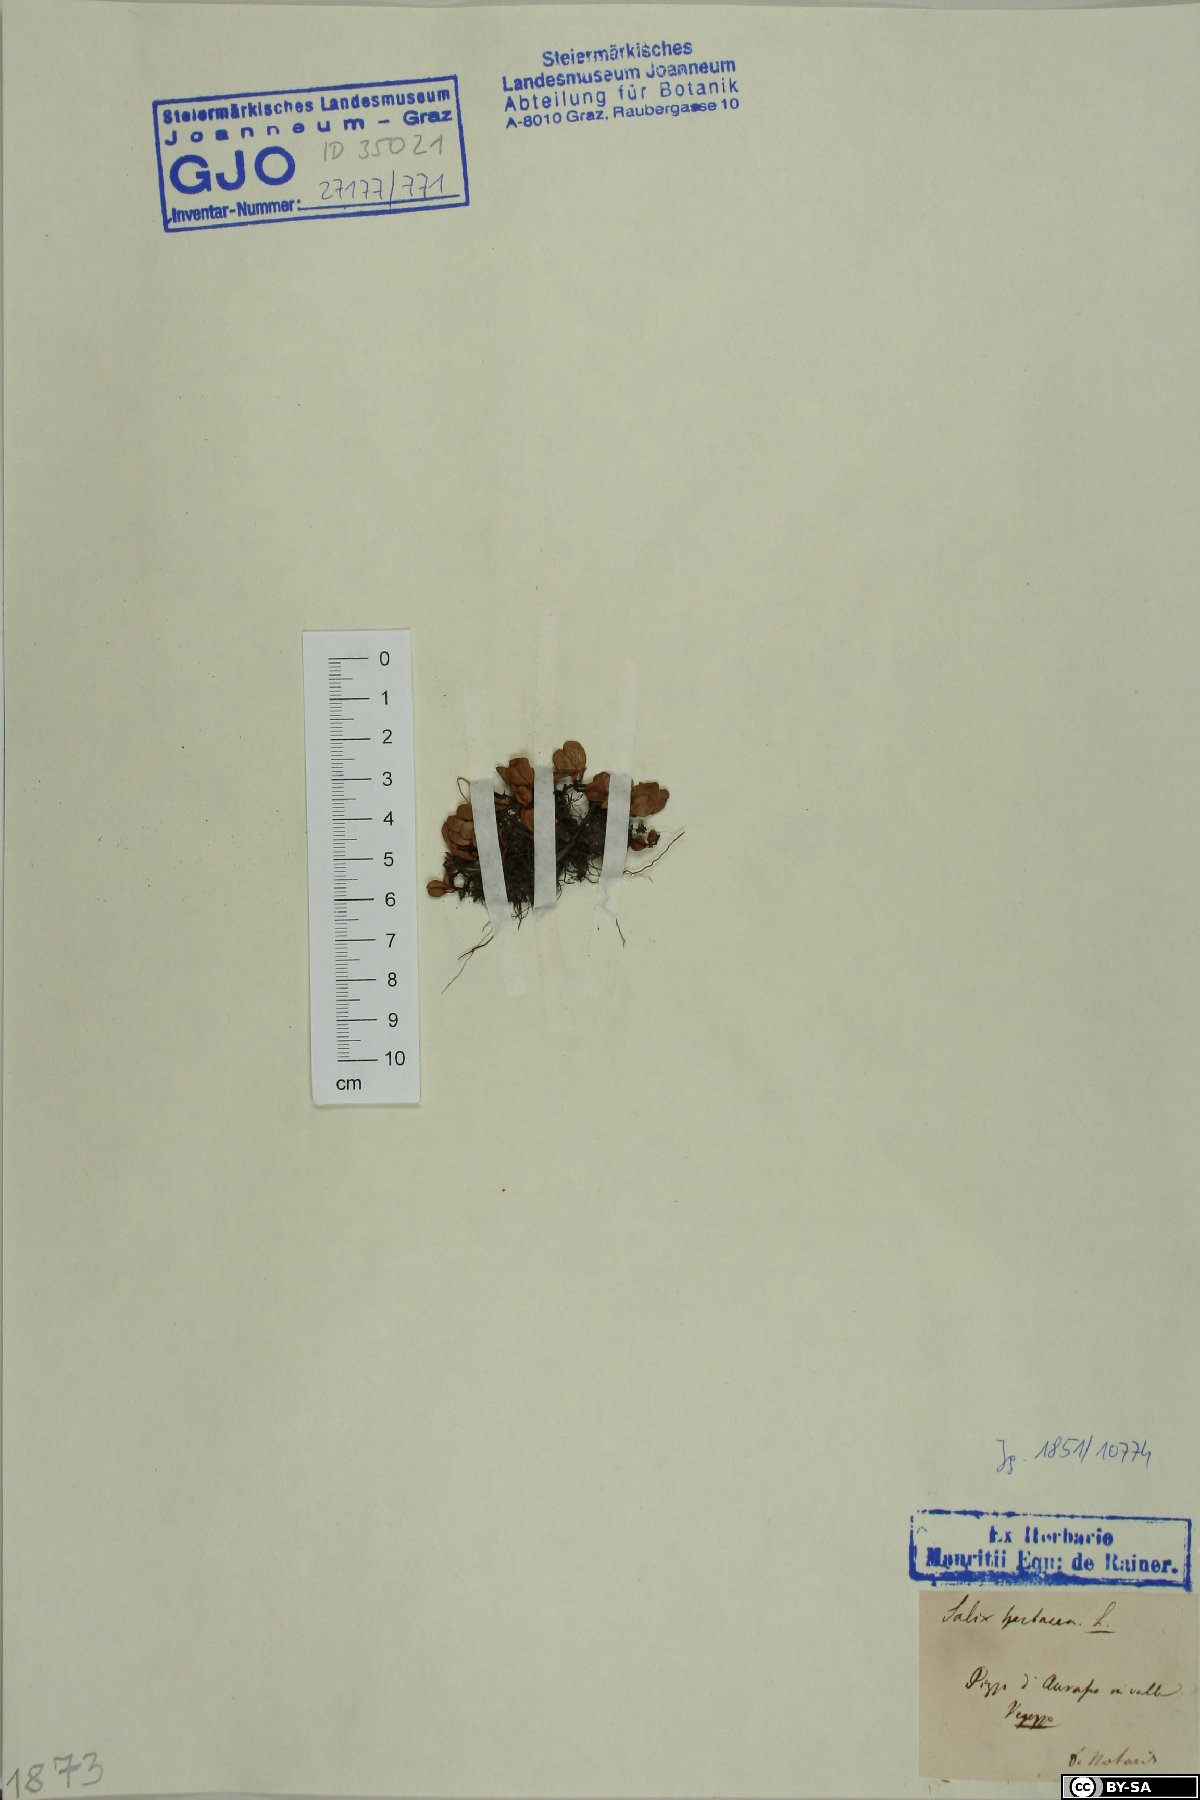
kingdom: Plantae
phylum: Tracheophyta
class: Magnoliopsida
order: Malpighiales
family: Salicaceae
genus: Salix
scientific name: Salix herbacea
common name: Dwarf willow
